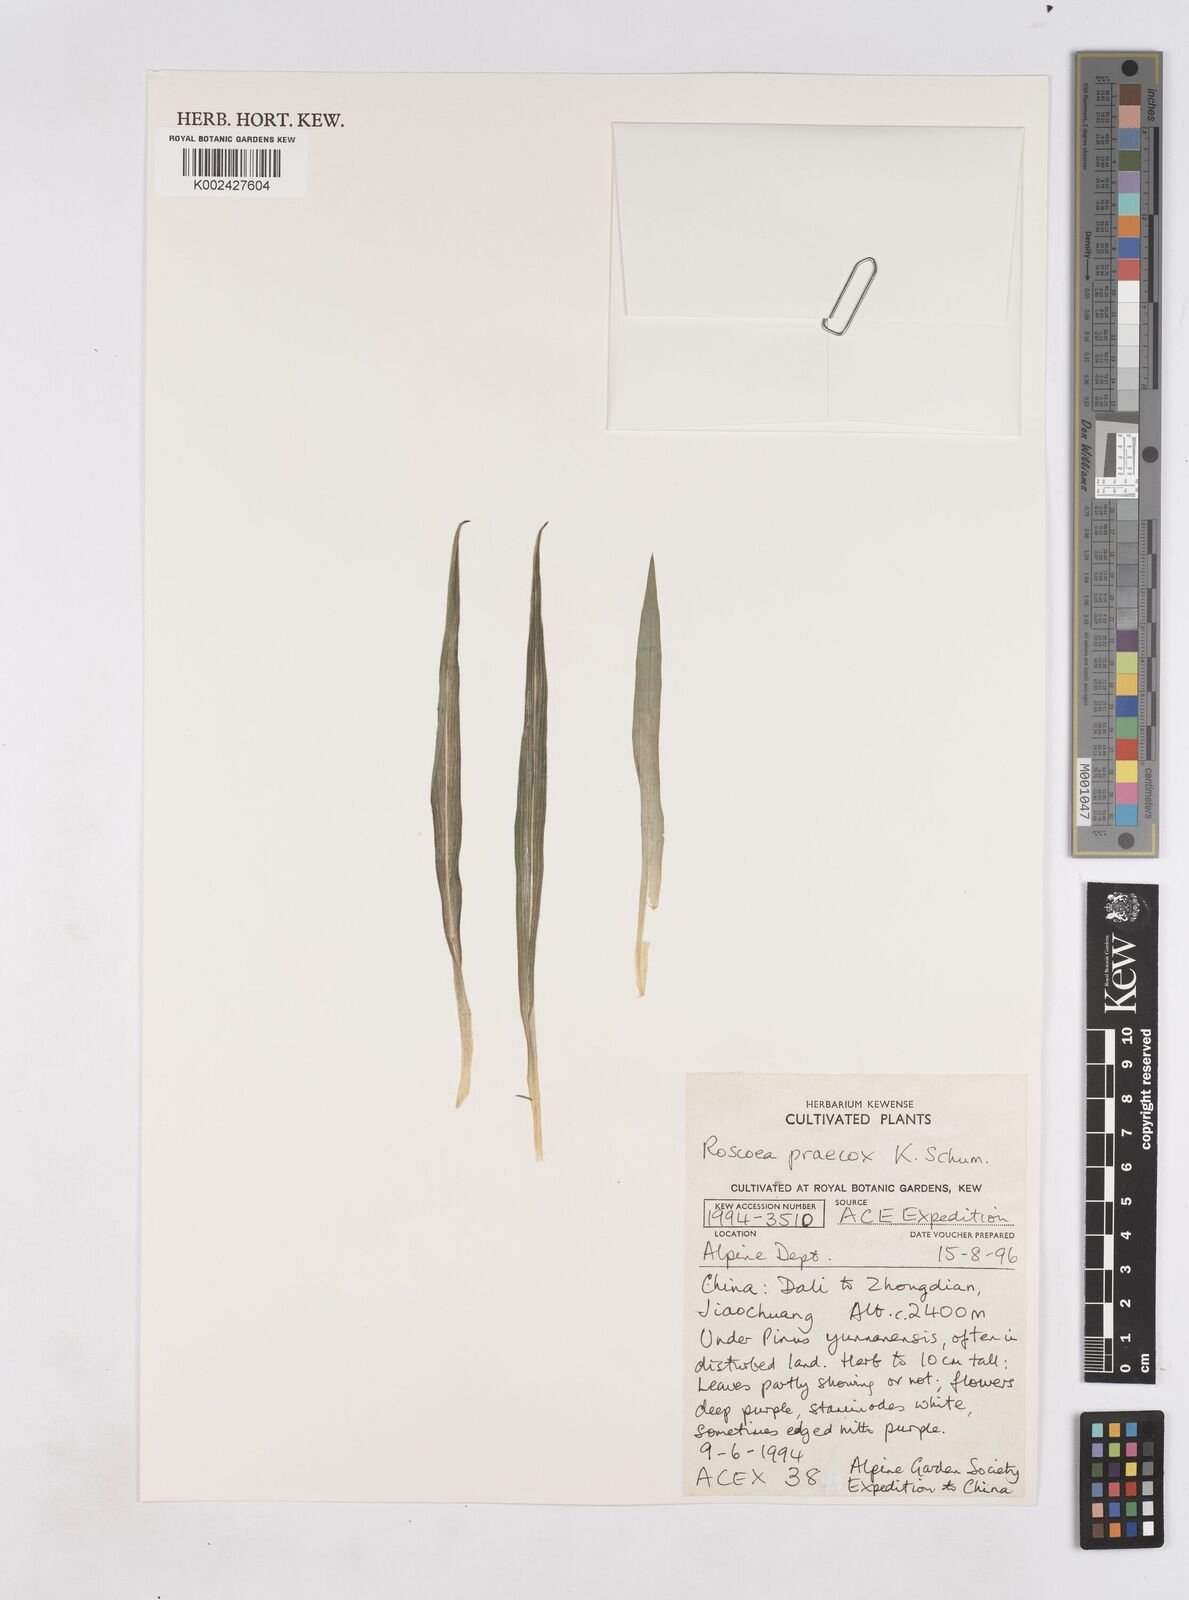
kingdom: Plantae
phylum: Tracheophyta
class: Liliopsida
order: Zingiberales
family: Zingiberaceae
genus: Roscoea
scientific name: Roscoea praecox
